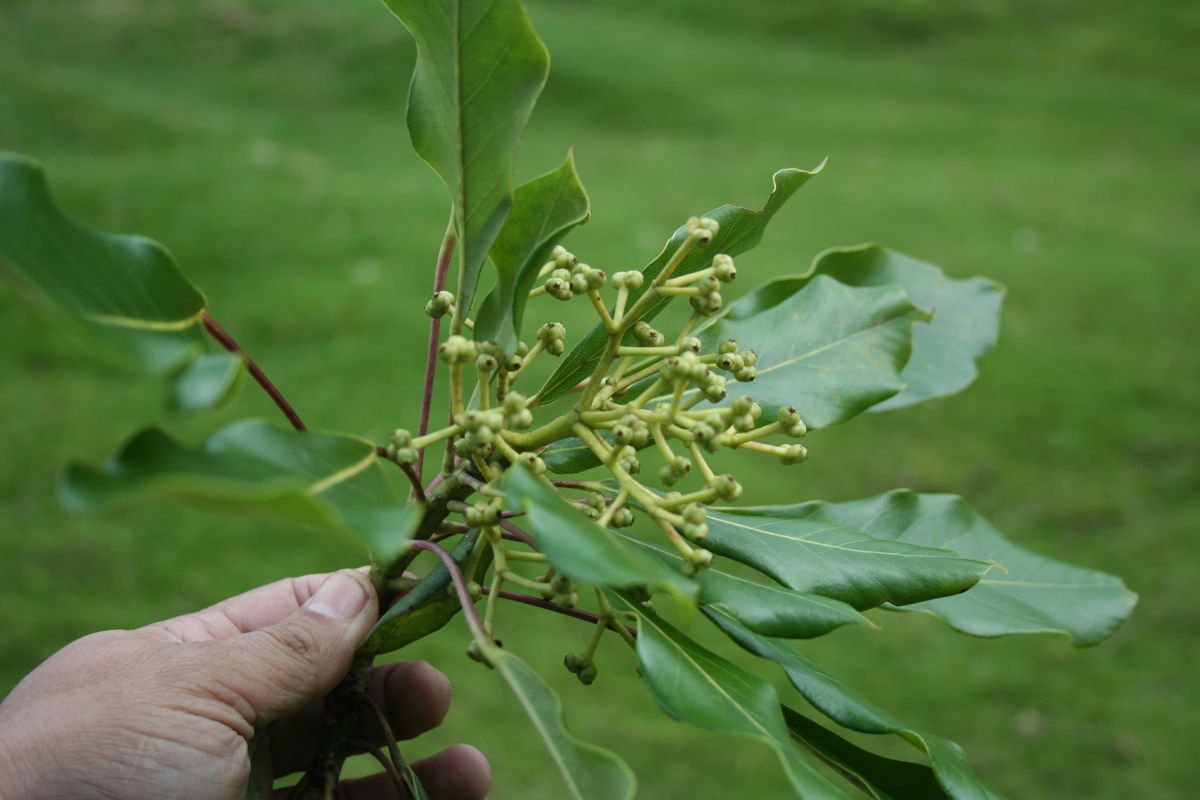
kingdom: Plantae
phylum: Tracheophyta
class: Magnoliopsida
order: Apiales
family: Araliaceae
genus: Dendropanax
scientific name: Dendropanax oliganthus
